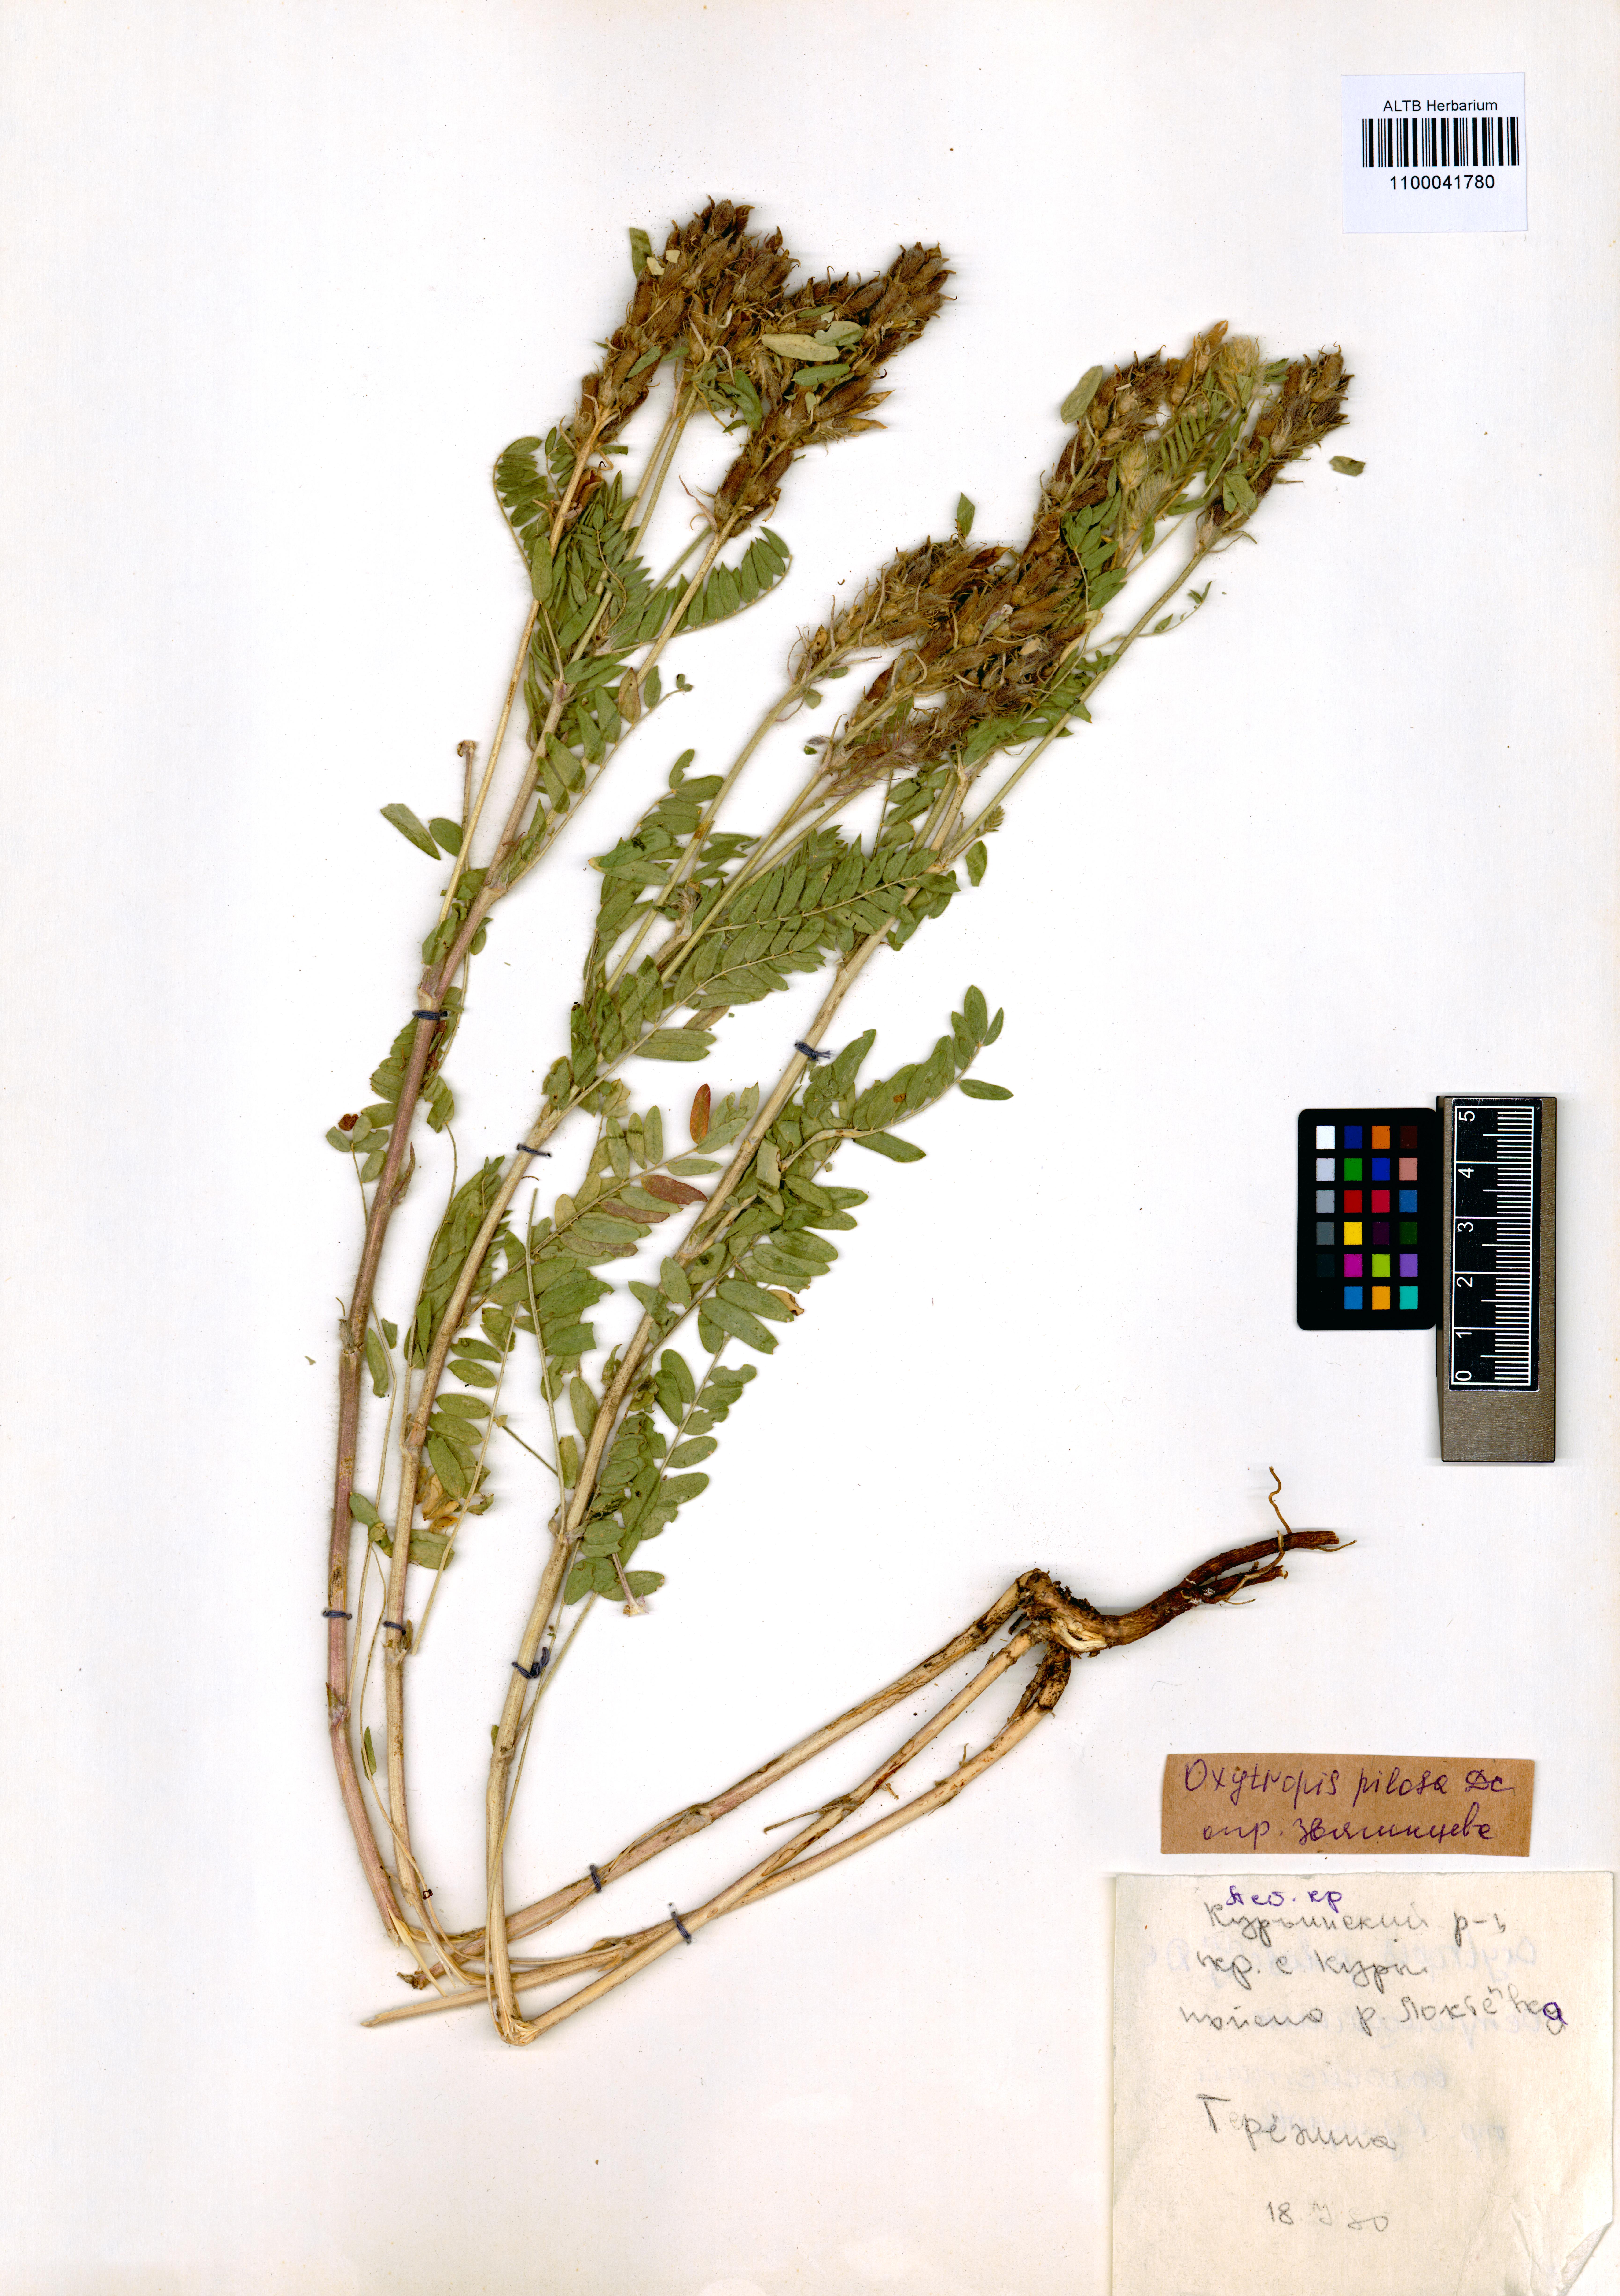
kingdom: Plantae
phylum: Tracheophyta
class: Magnoliopsida
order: Fabales
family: Fabaceae
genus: Oxytropis
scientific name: Oxytropis pilosa
